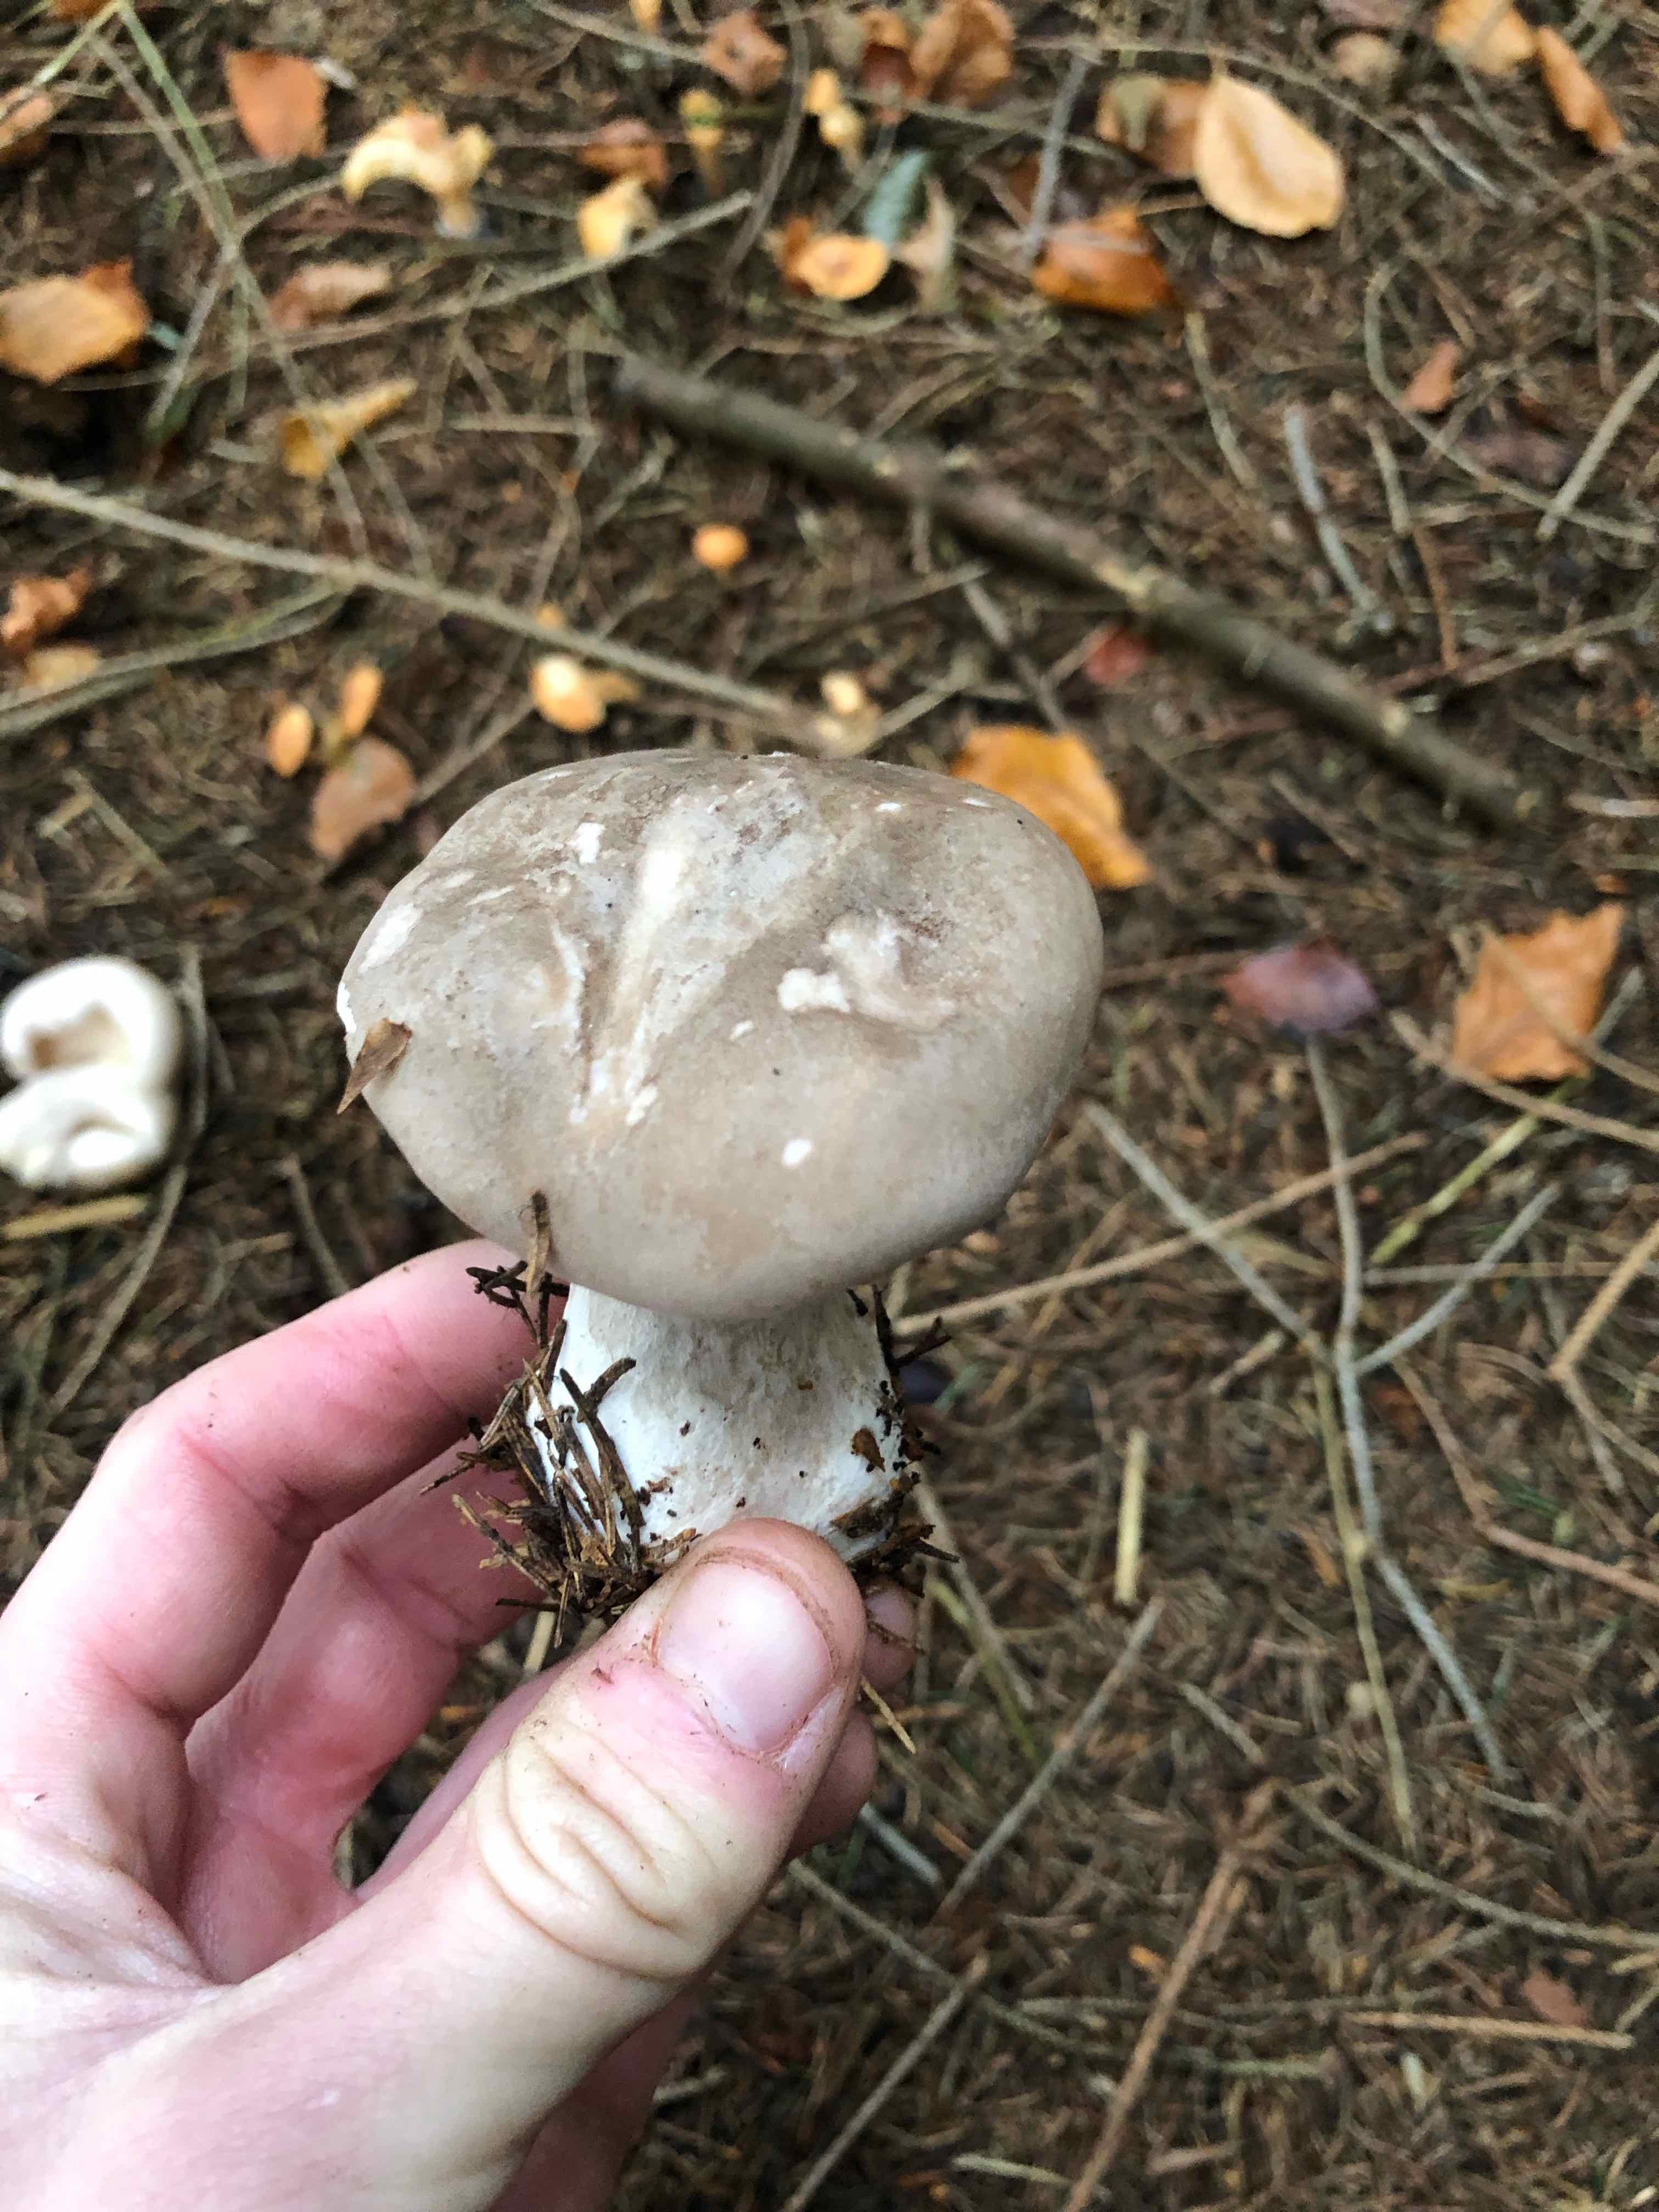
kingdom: Fungi
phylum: Basidiomycota
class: Agaricomycetes
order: Agaricales
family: Tricholomataceae
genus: Clitocybe
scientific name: Clitocybe nebularis
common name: tåge-tragthat
